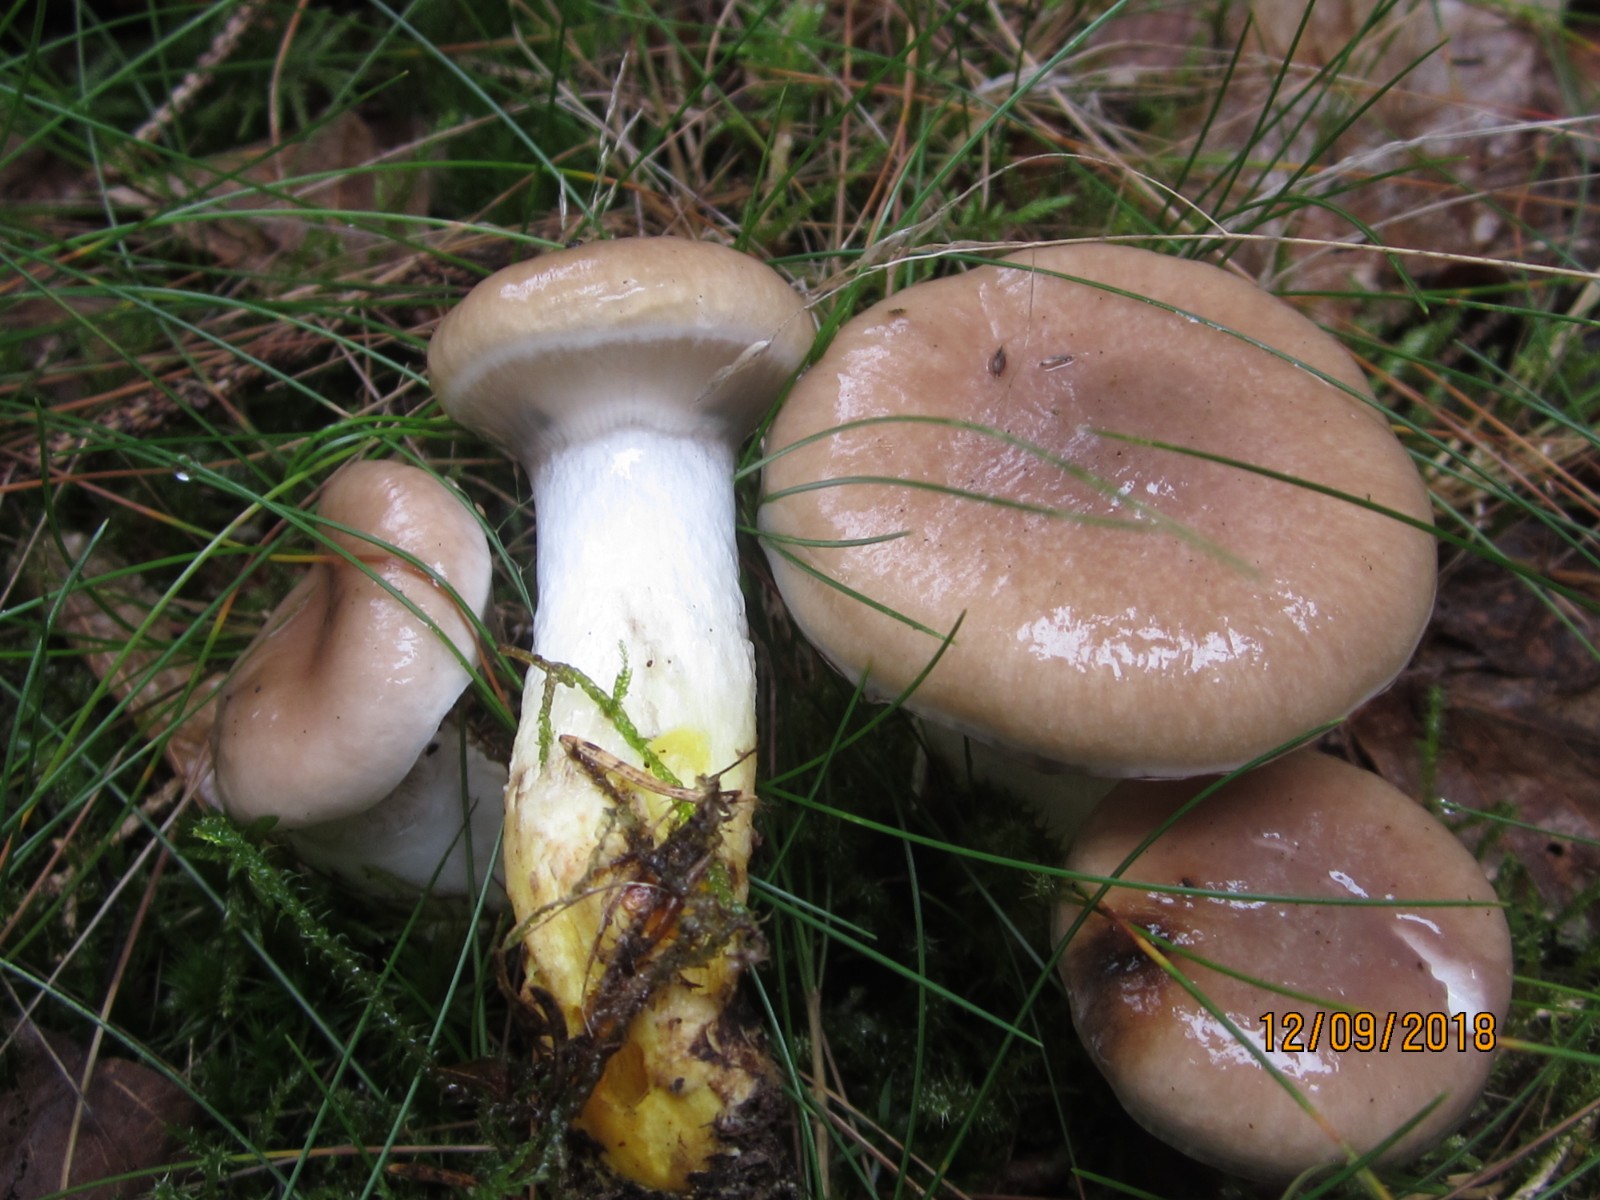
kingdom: Fungi
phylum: Basidiomycota
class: Agaricomycetes
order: Boletales
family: Gomphidiaceae
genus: Gomphidius
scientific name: Gomphidius glutinosus
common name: grå slimslør
